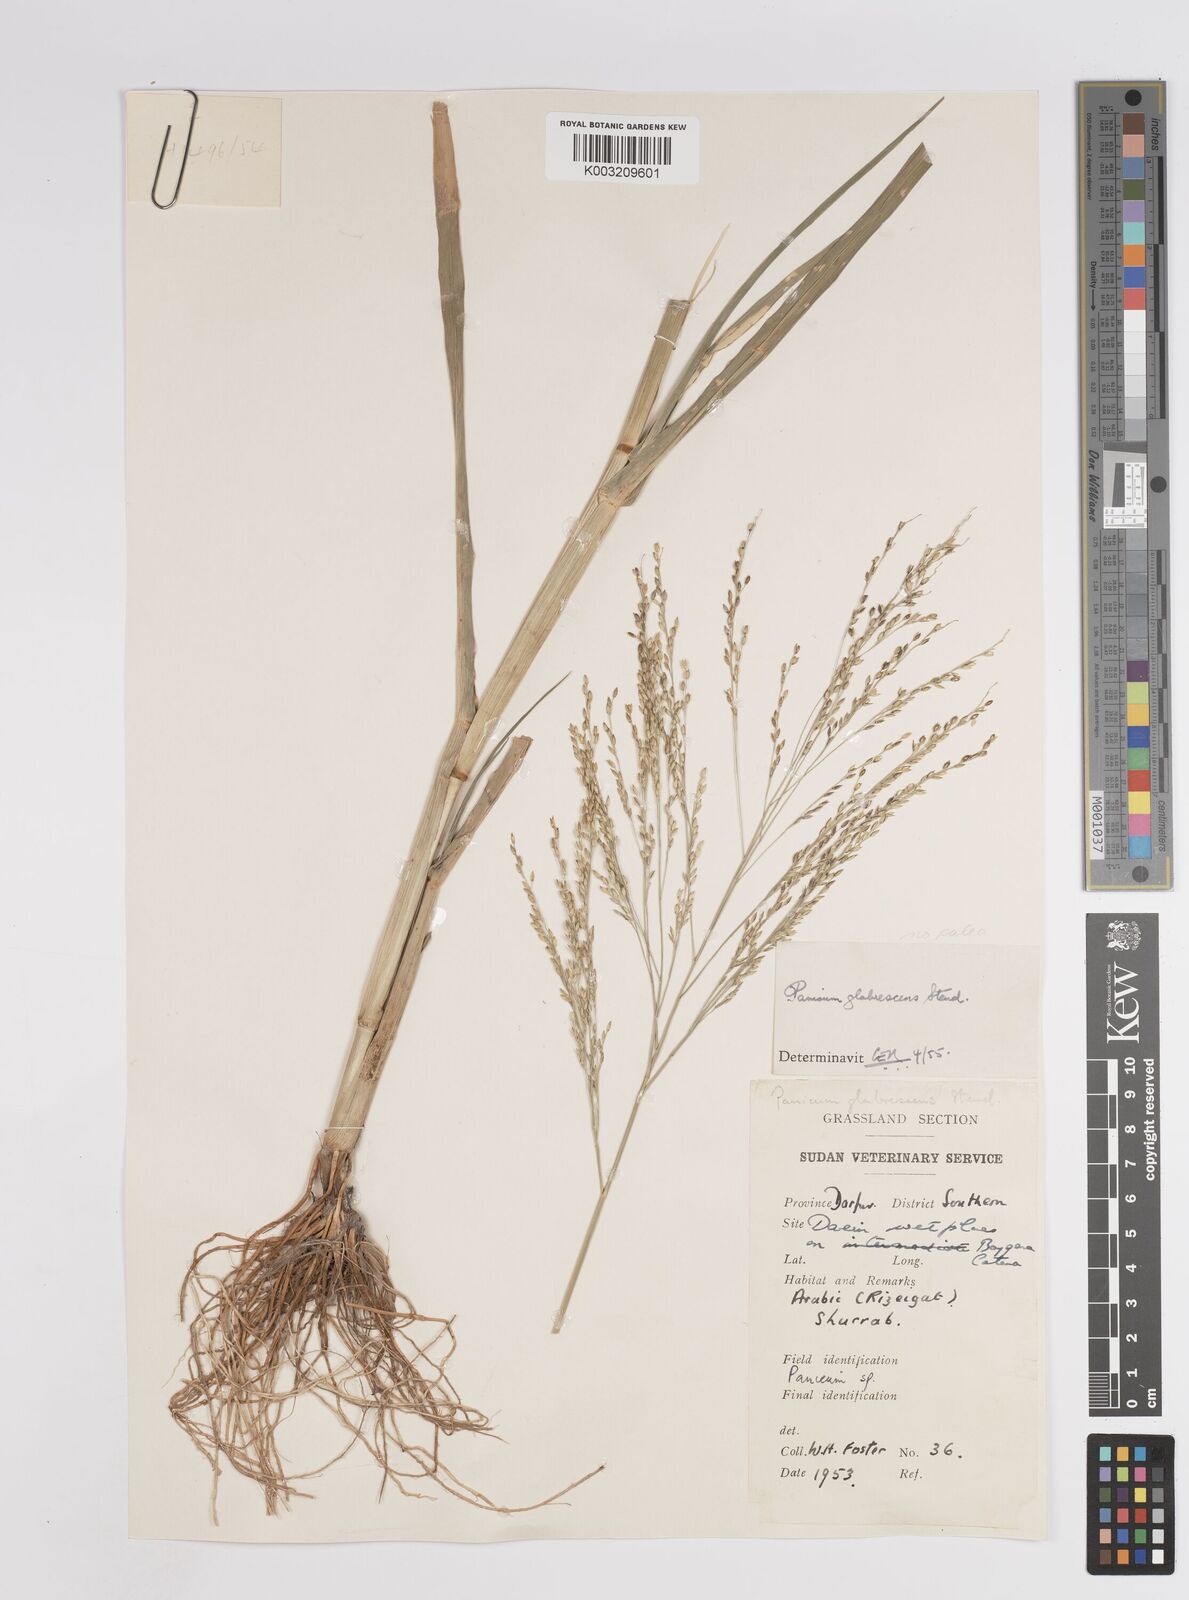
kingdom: Plantae
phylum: Tracheophyta
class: Liliopsida
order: Poales
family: Poaceae
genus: Panicum
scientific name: Panicum subalbidum
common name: Elbow buffalo grass
